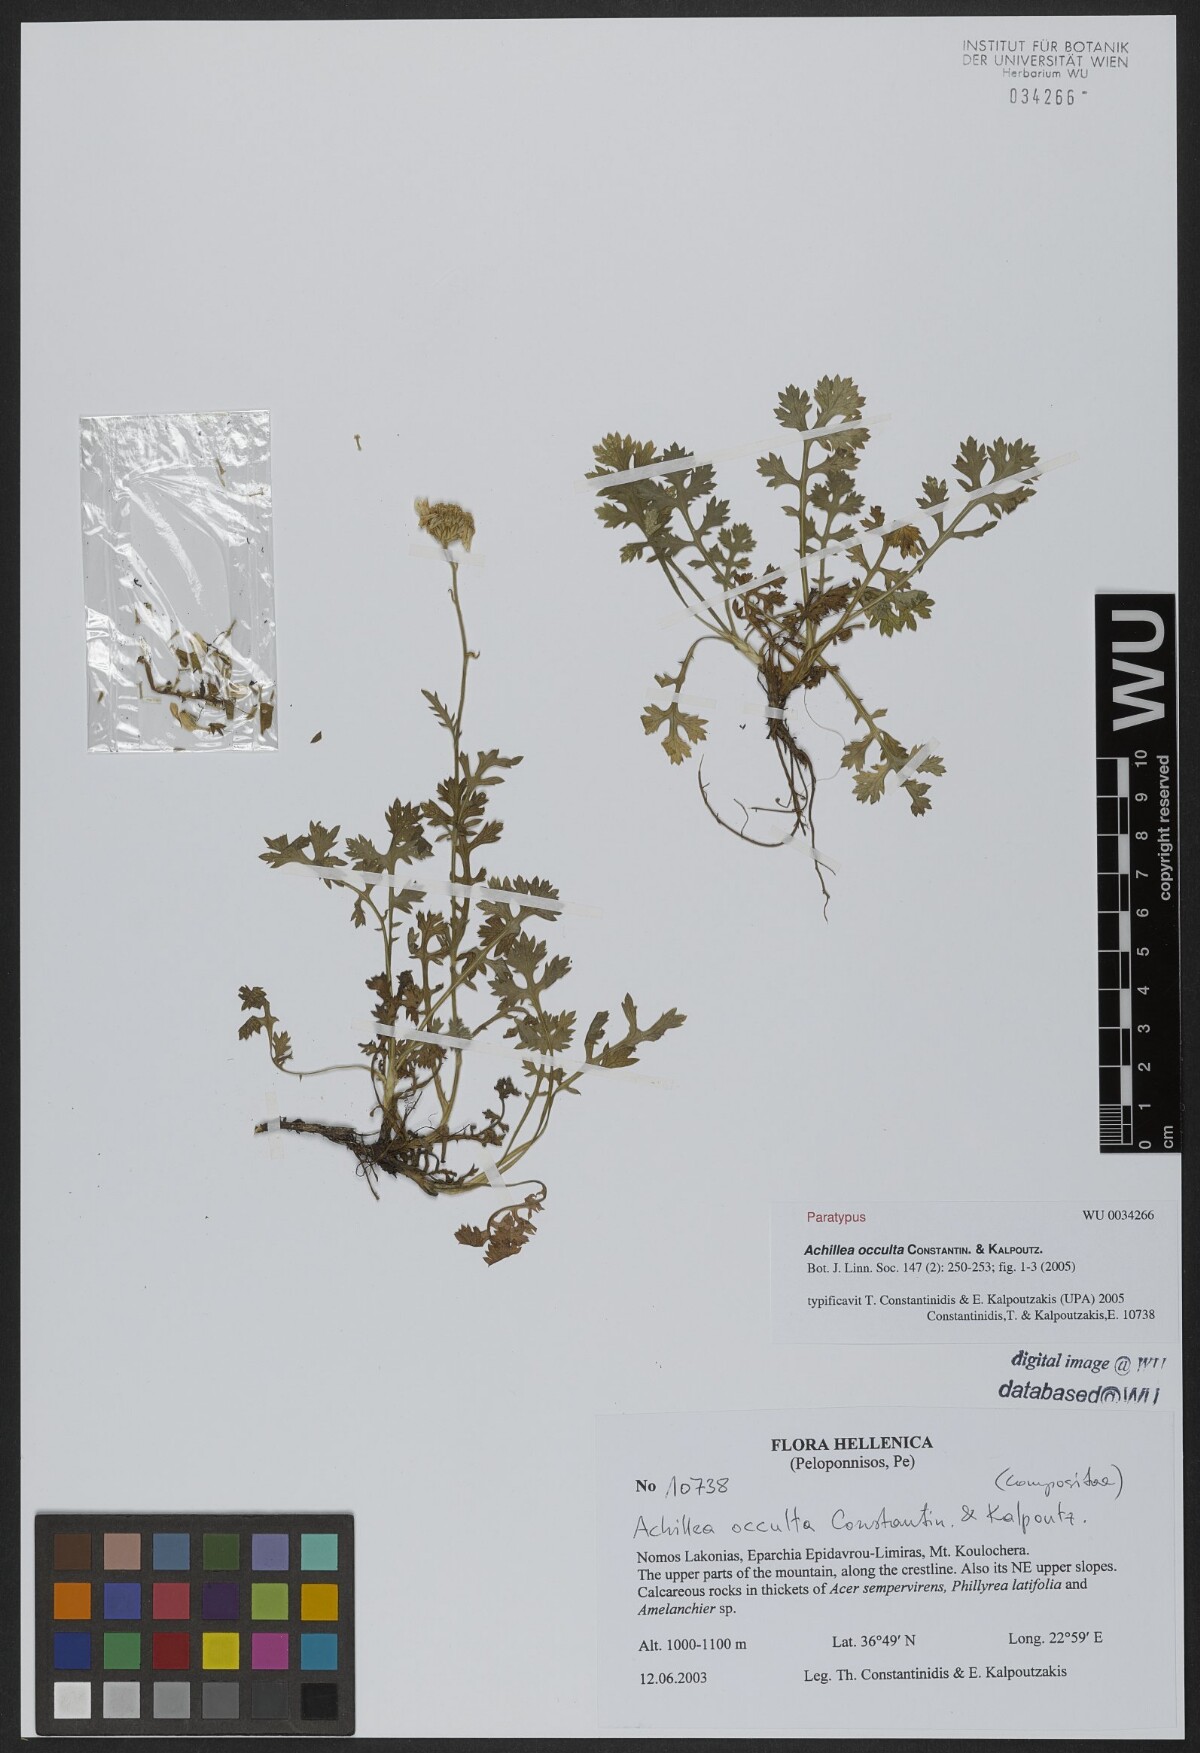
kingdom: Plantae
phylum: Tracheophyta
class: Magnoliopsida
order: Asterales
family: Asteraceae
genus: Achillea
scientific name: Achillea occulta
